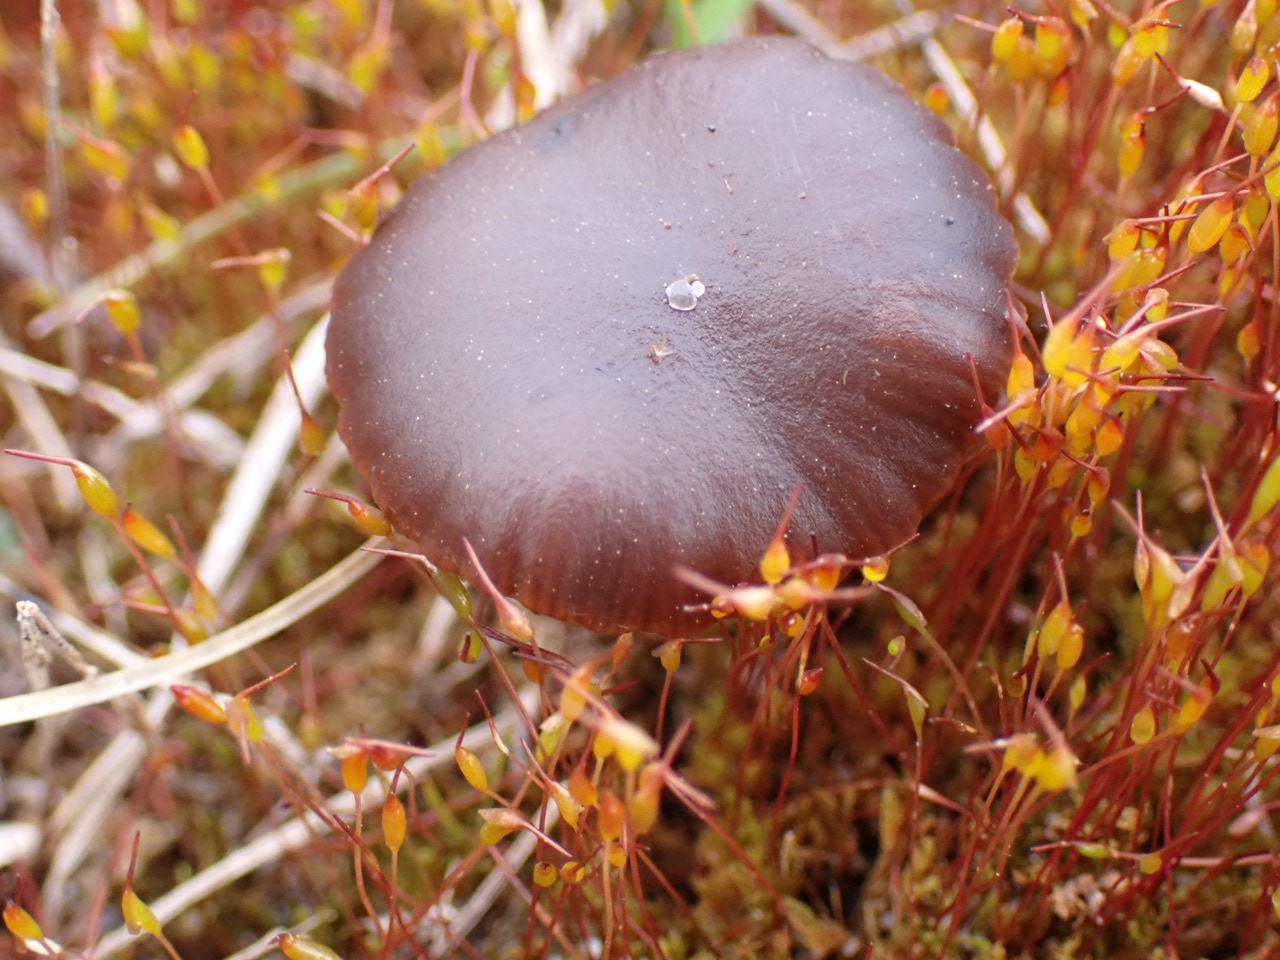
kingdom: Fungi
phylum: Basidiomycota
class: Agaricomycetes
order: Agaricales
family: Strophariaceae
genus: Deconica
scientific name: Deconica montana
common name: rødbrun stråhat
